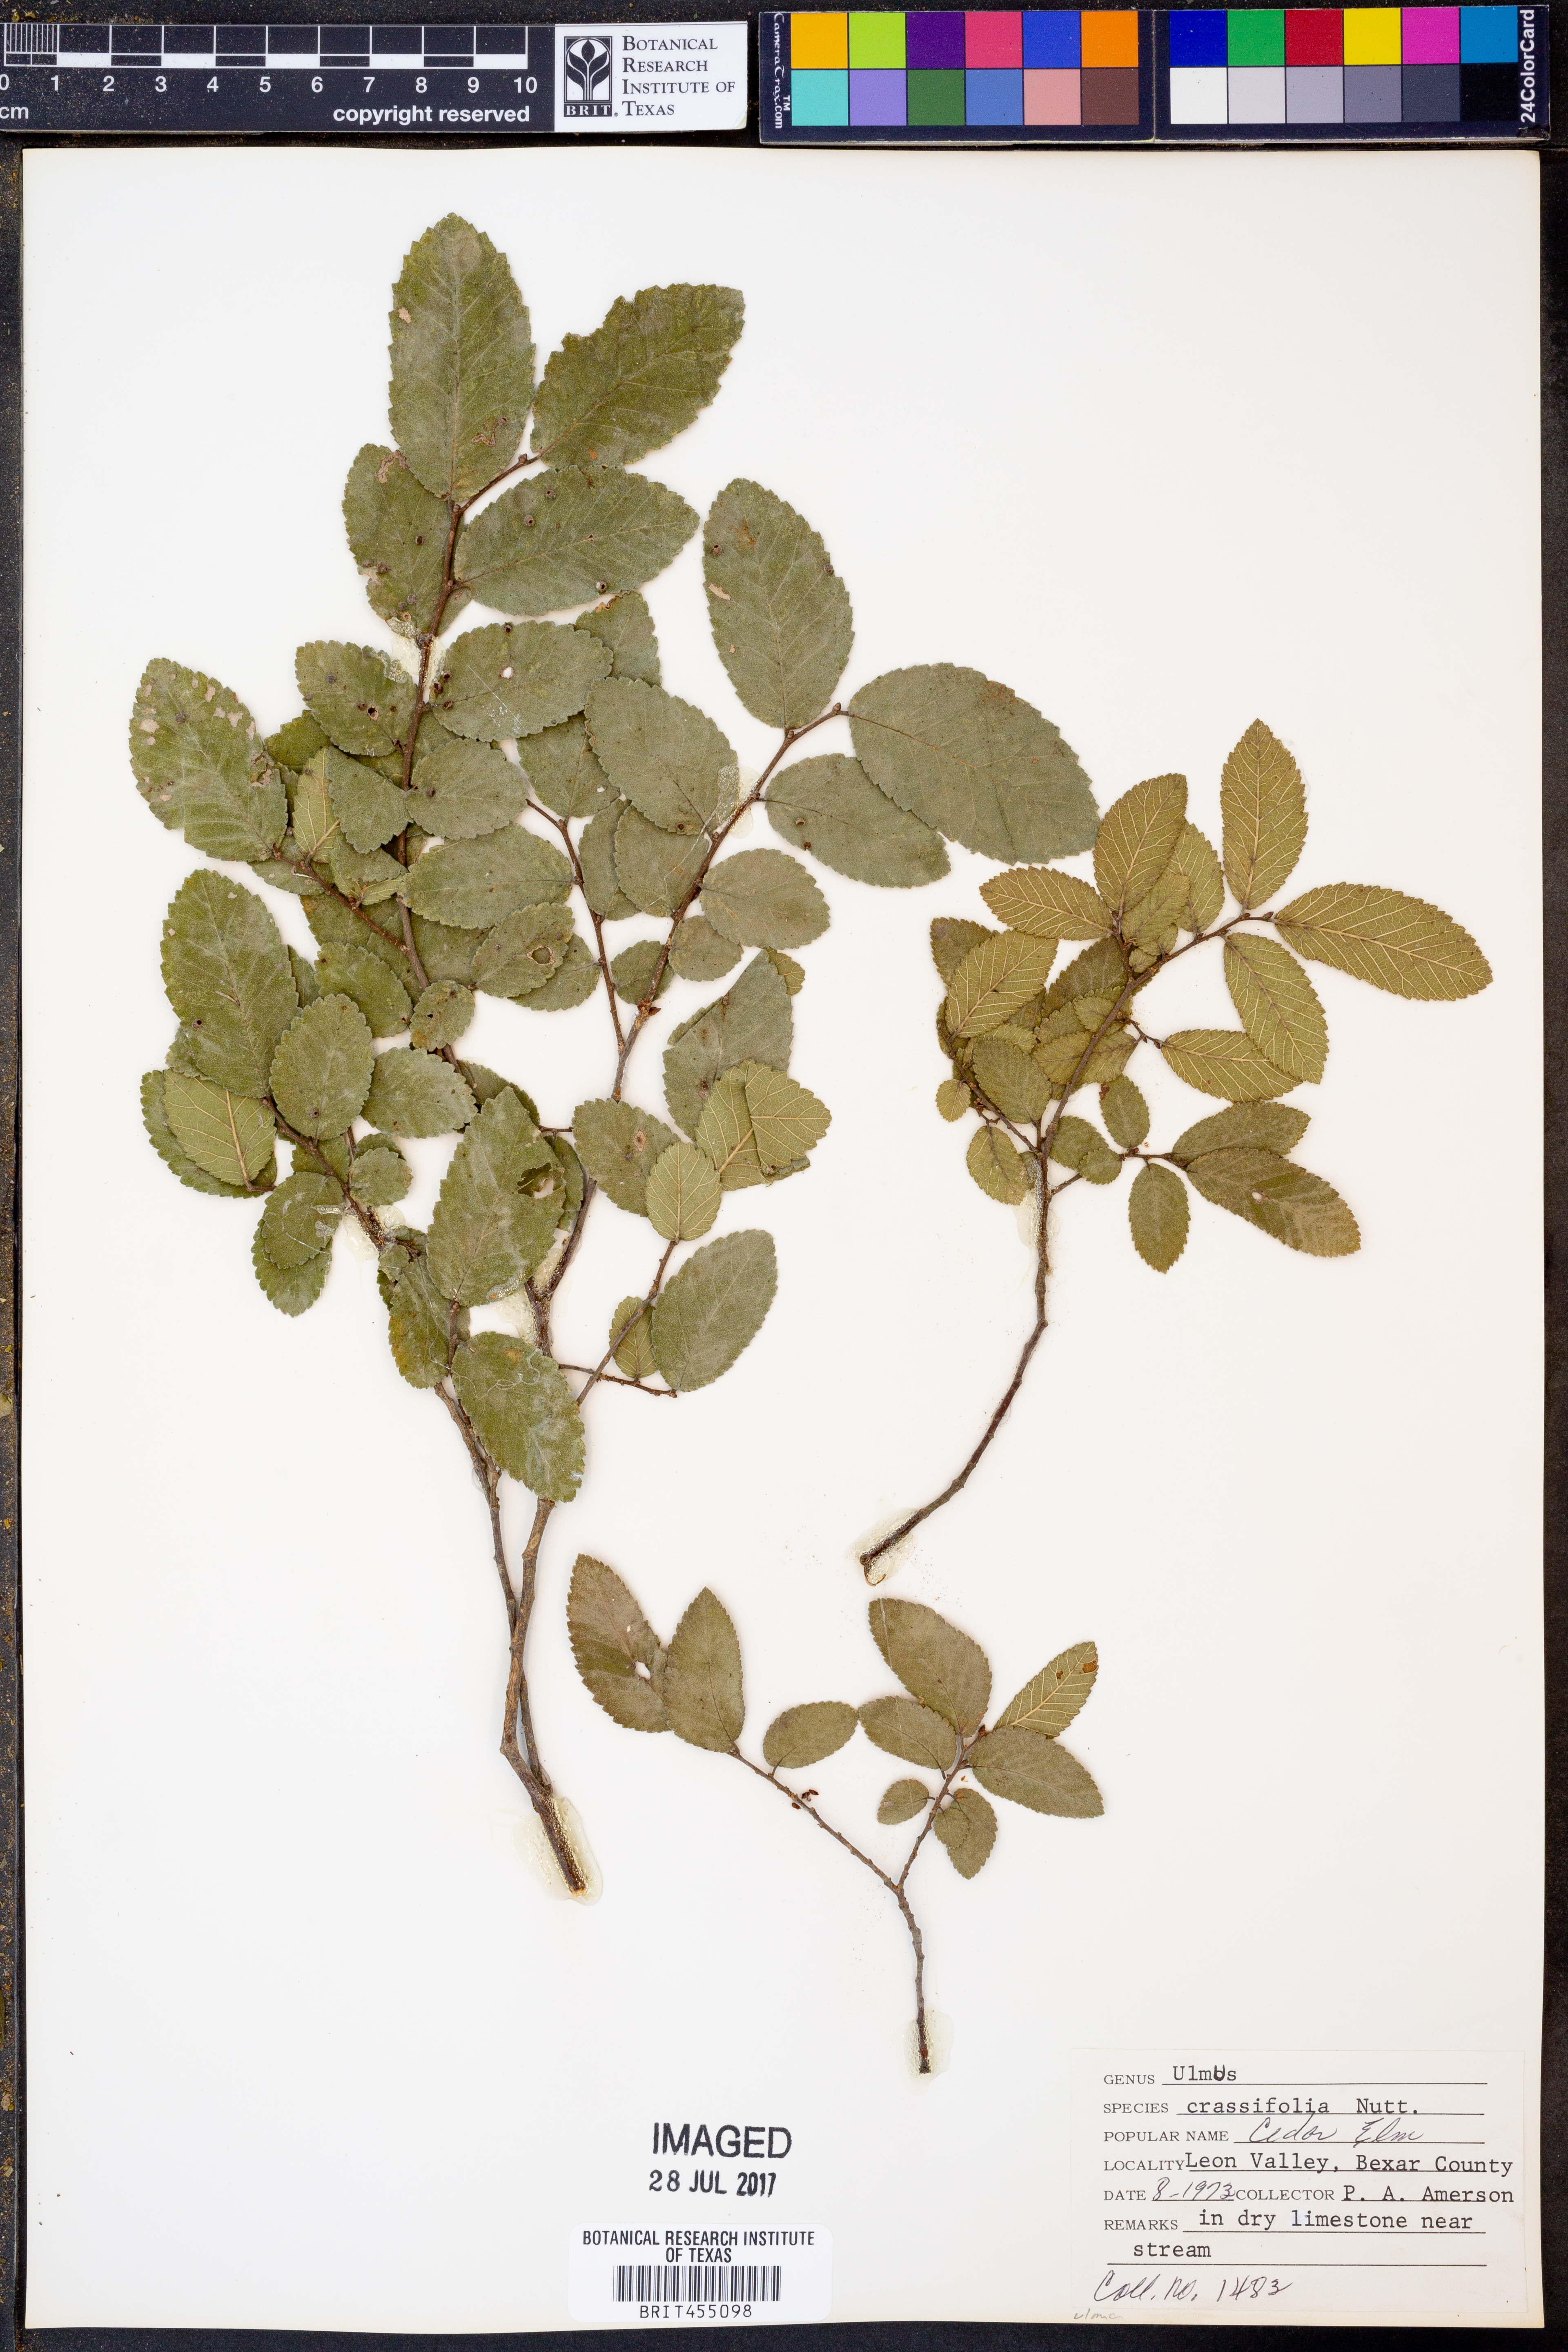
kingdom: Plantae
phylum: Tracheophyta
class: Magnoliopsida
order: Rosales
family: Ulmaceae
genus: Ulmus
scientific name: Ulmus crassifolia
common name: Basket elm
